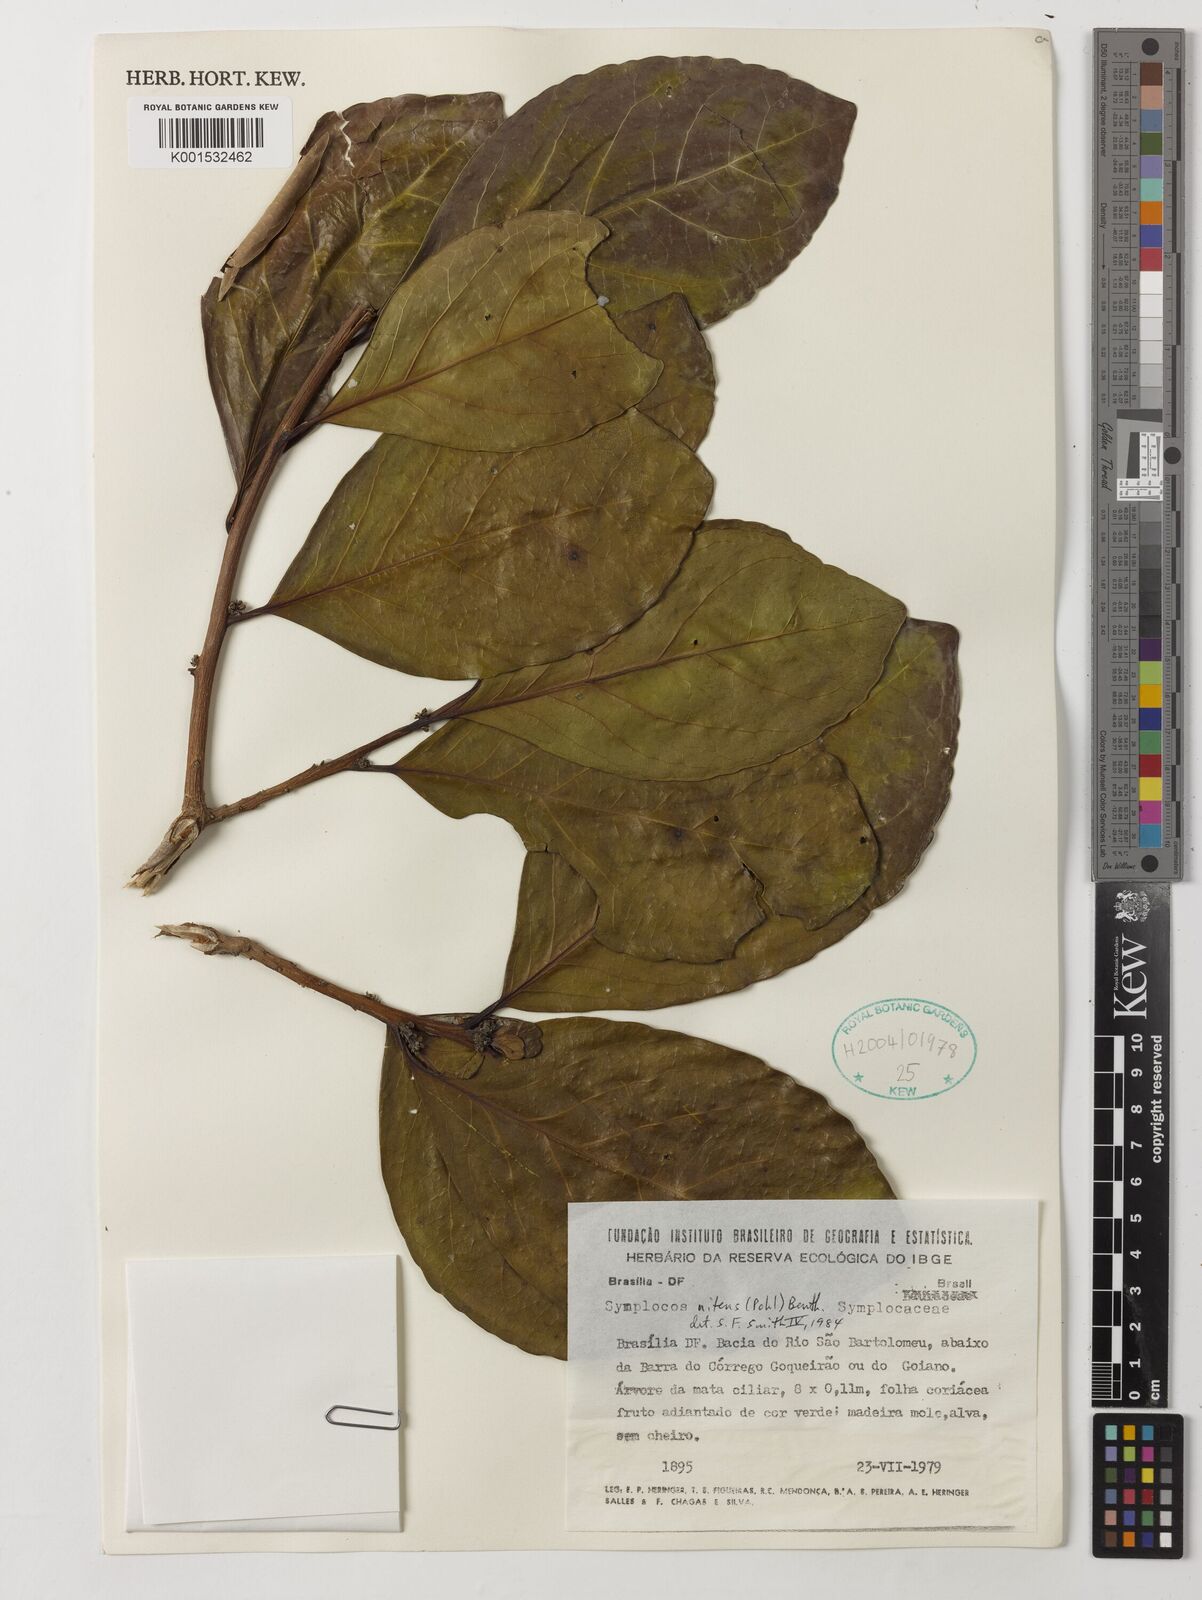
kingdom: Plantae
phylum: Tracheophyta
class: Magnoliopsida
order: Ericales
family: Symplocaceae
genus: Symplocos
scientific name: Symplocos nitens
